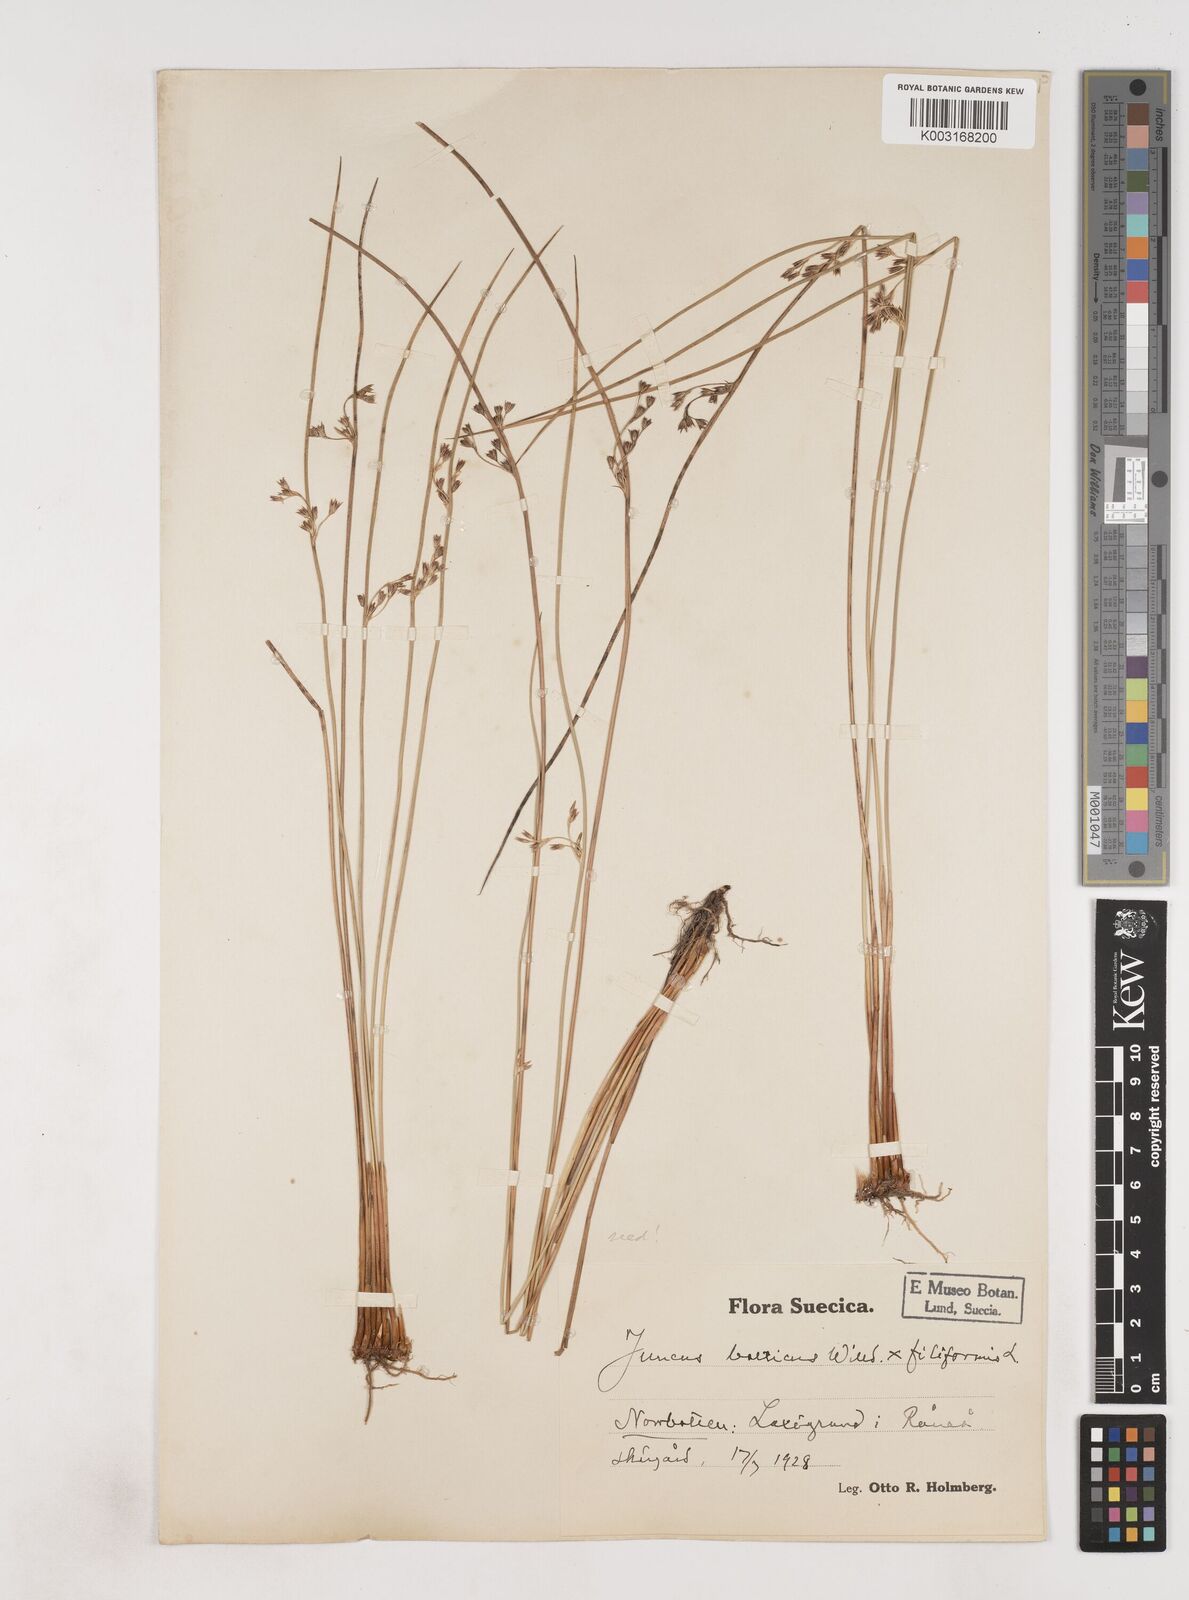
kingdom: Plantae
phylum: Tracheophyta
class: Liliopsida
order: Poales
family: Juncaceae
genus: Juncus
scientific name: Juncus balticus
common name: Baltic rush
